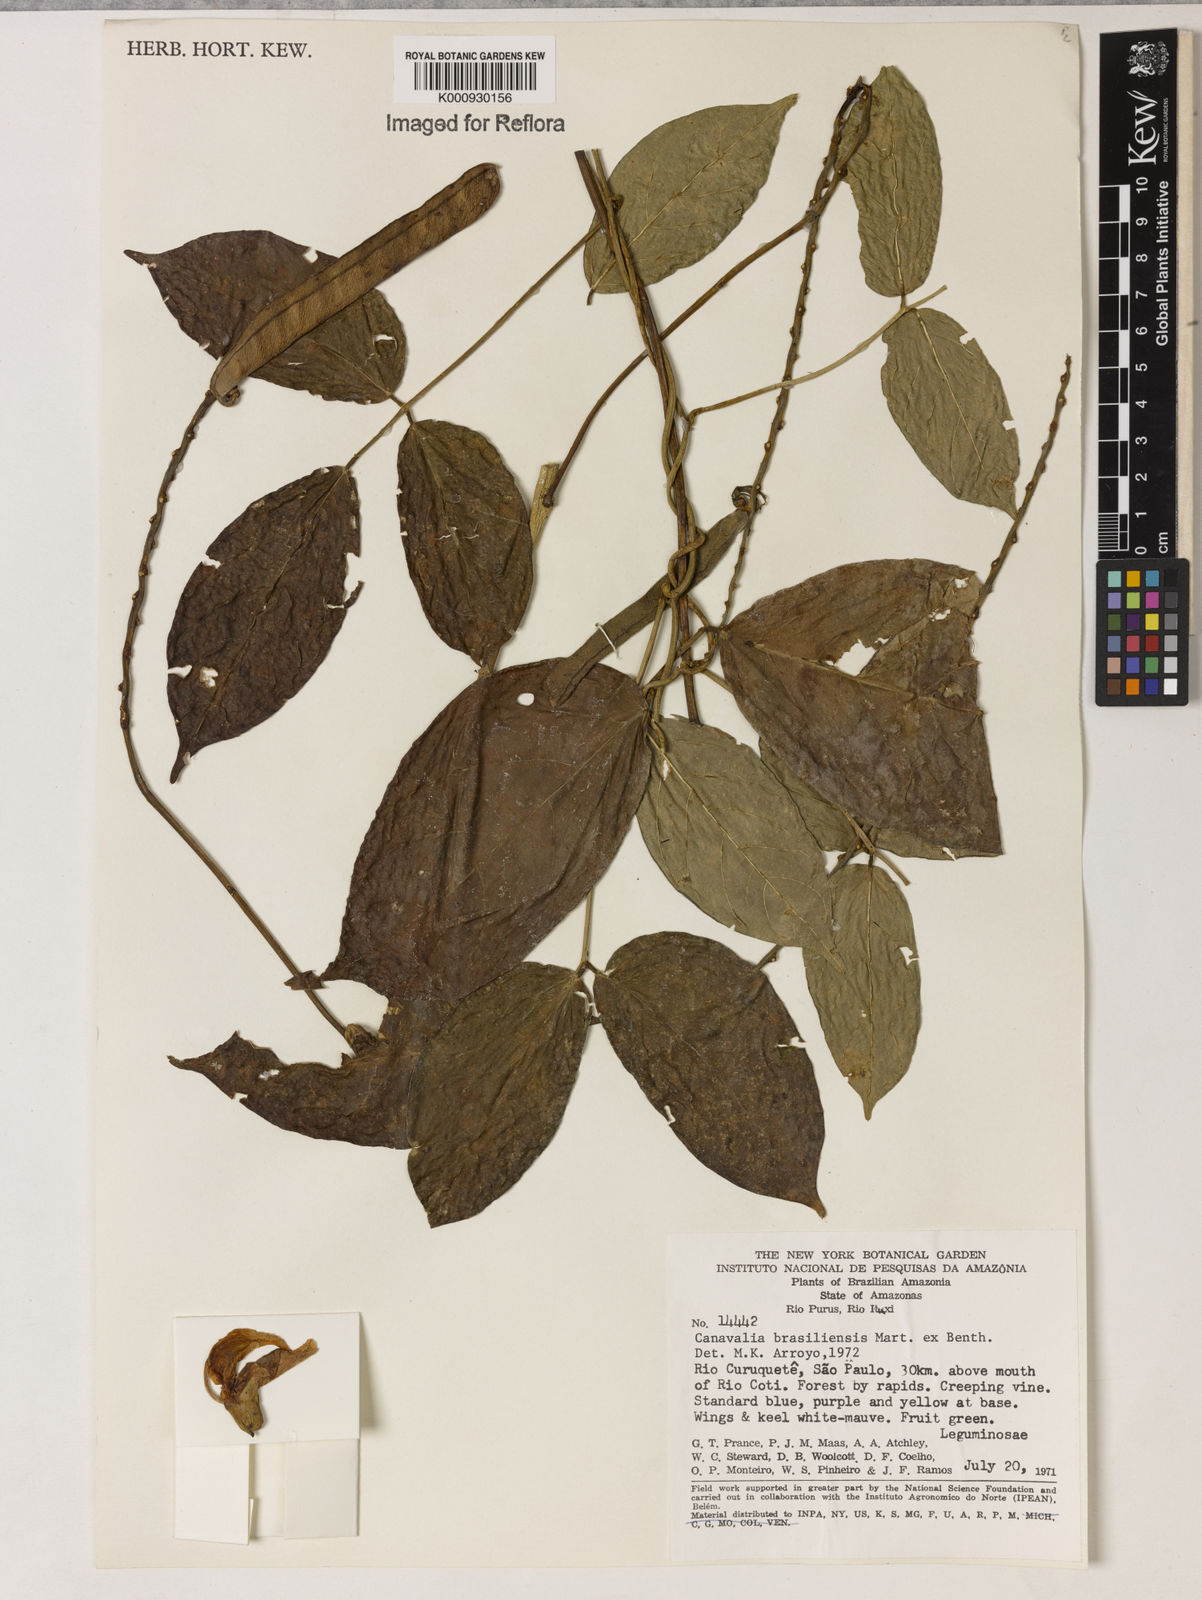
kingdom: Plantae
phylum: Tracheophyta
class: Magnoliopsida
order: Fabales
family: Fabaceae
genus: Canavalia
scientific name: Canavalia brasiliensis
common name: Barbicou-bean
